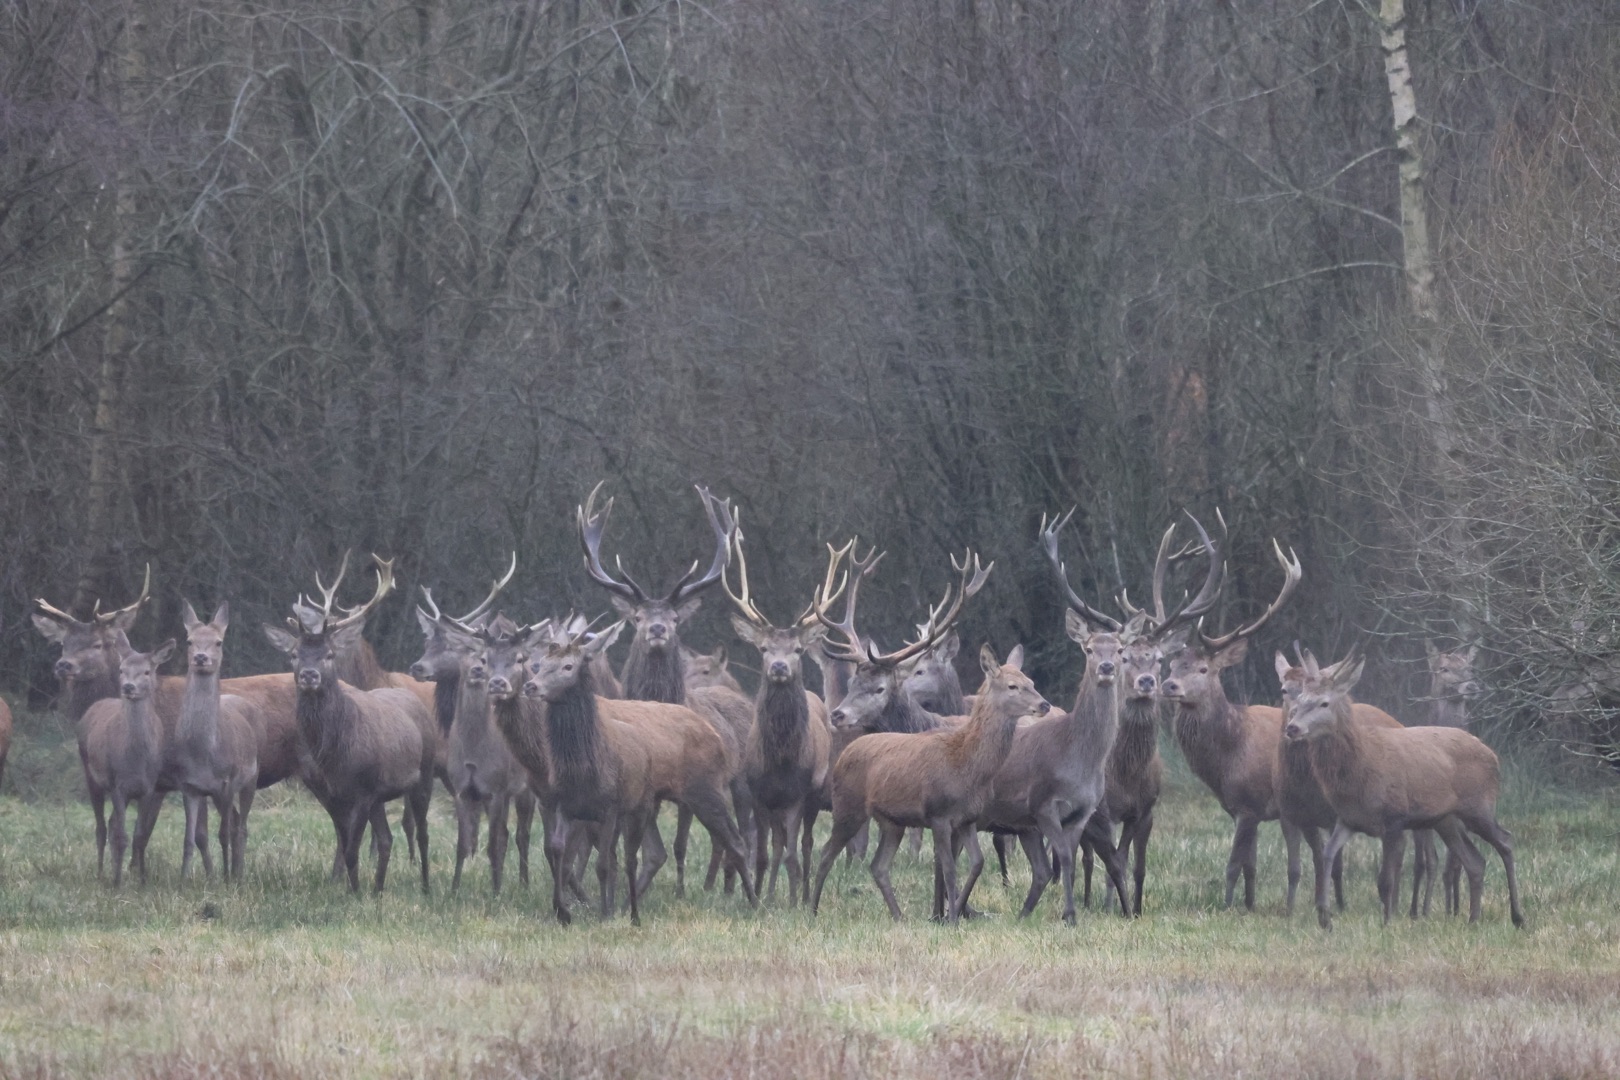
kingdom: Animalia
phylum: Chordata
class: Mammalia
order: Artiodactyla
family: Cervidae
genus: Cervus
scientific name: Cervus elaphus
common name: Krondyr
